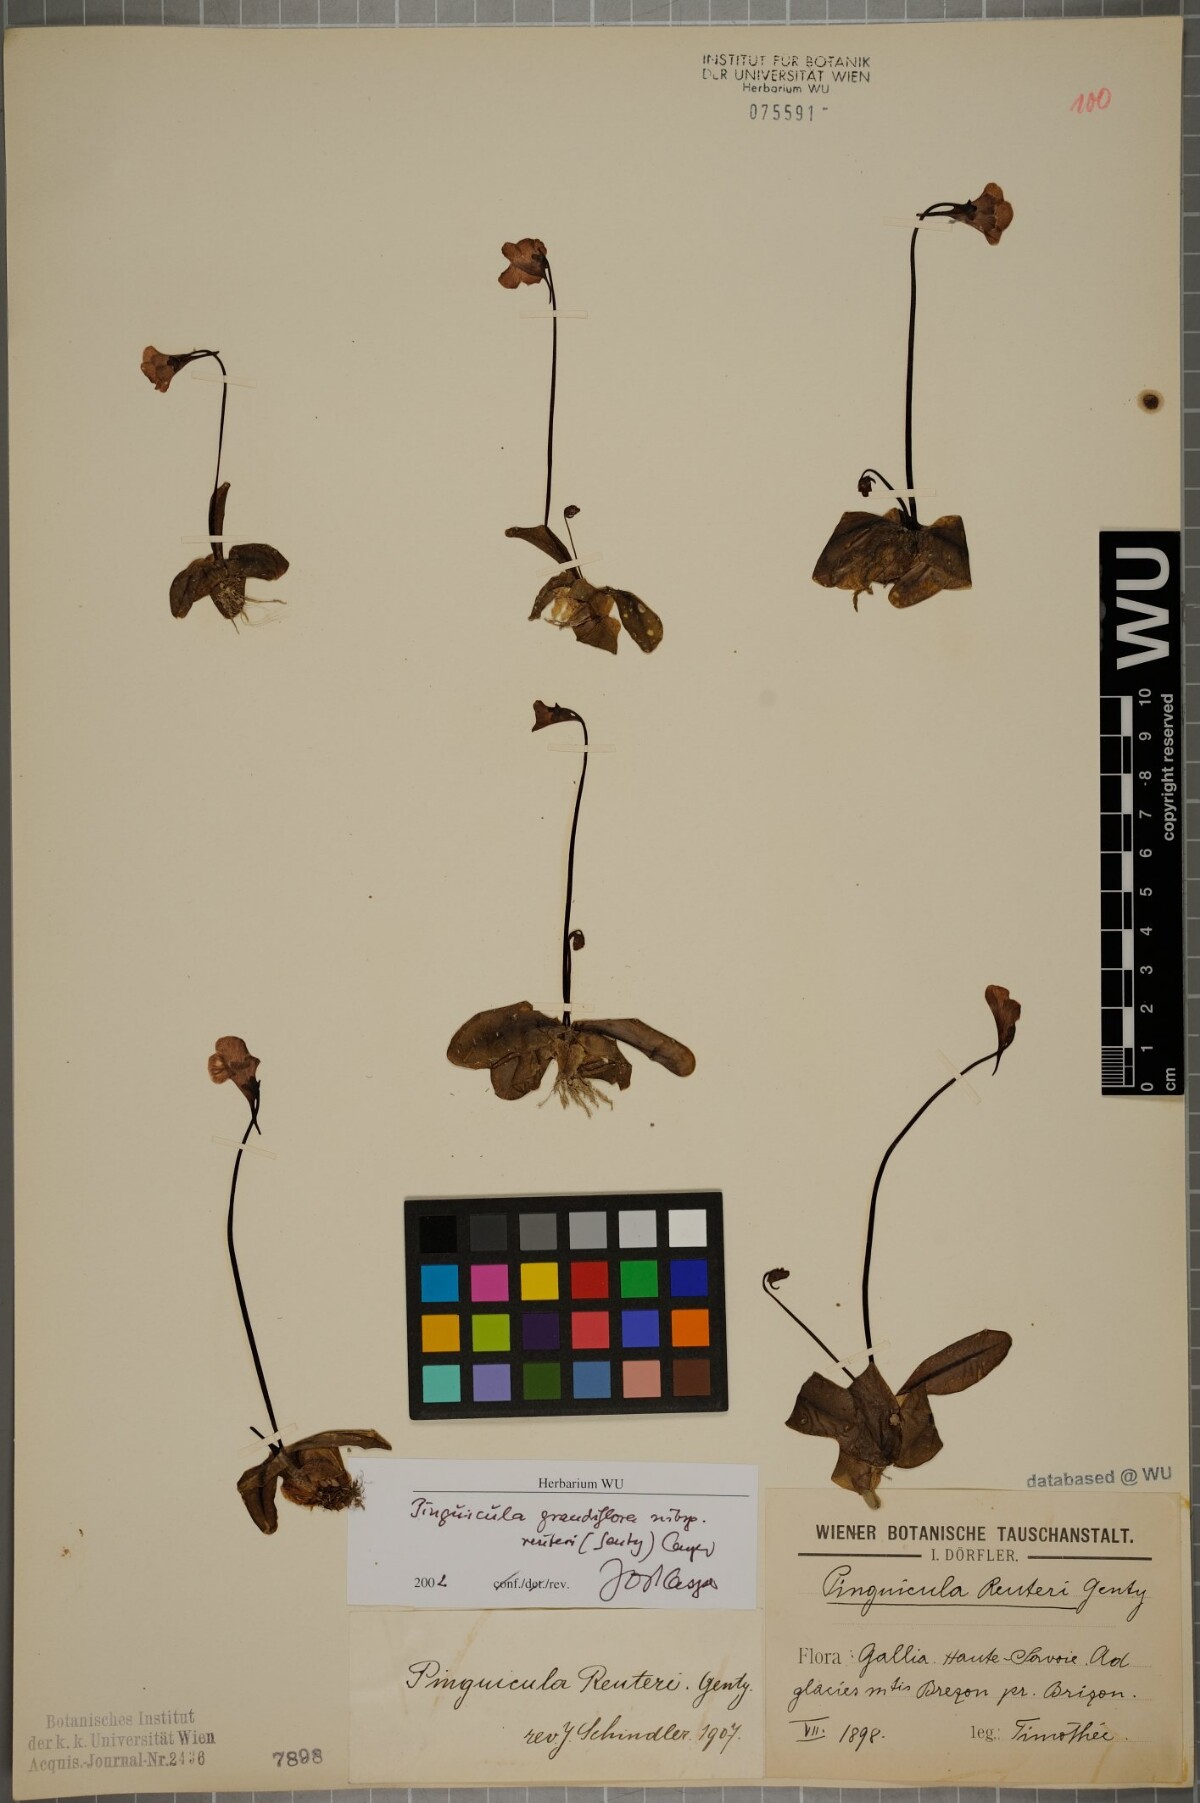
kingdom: Plantae
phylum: Tracheophyta
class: Magnoliopsida
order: Lamiales
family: Lentibulariaceae
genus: Pinguicula
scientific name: Pinguicula grandiflora
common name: Large-flowered butterwort
